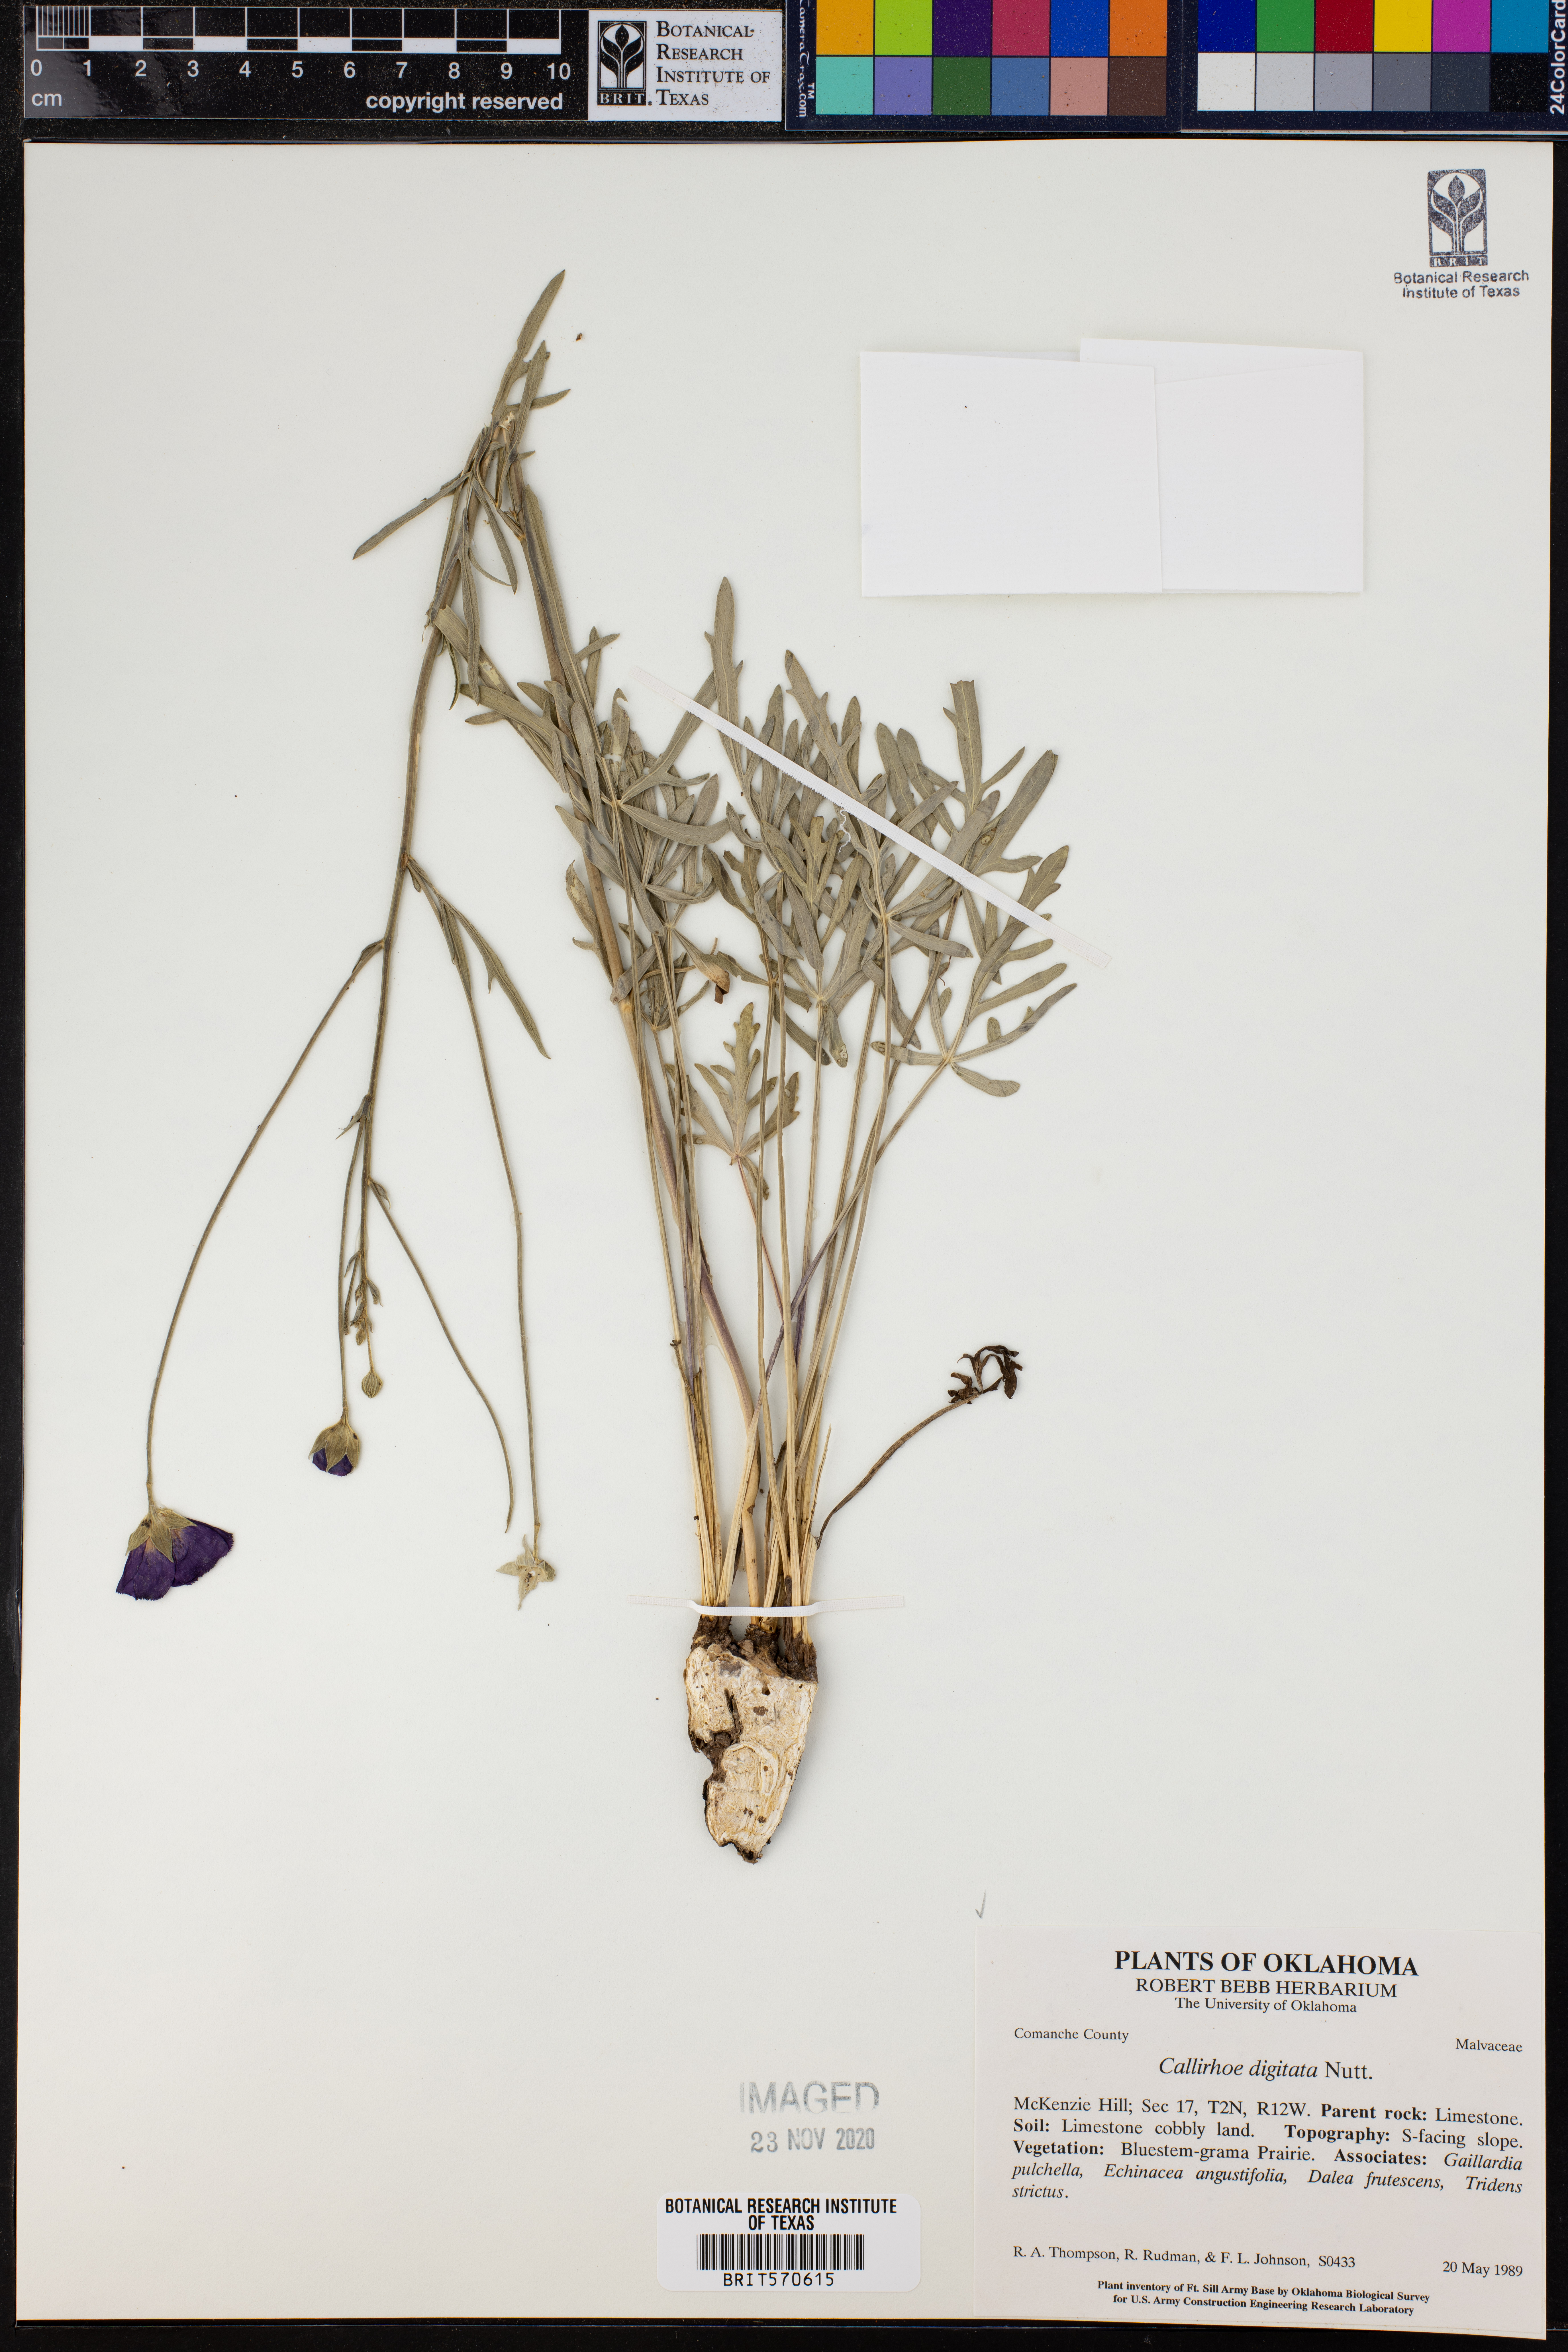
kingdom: Plantae
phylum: Tracheophyta
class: Magnoliopsida
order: Malvales
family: Malvaceae
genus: Callirhoe
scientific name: Callirhoe digitata
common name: Finger poppy-mallow
